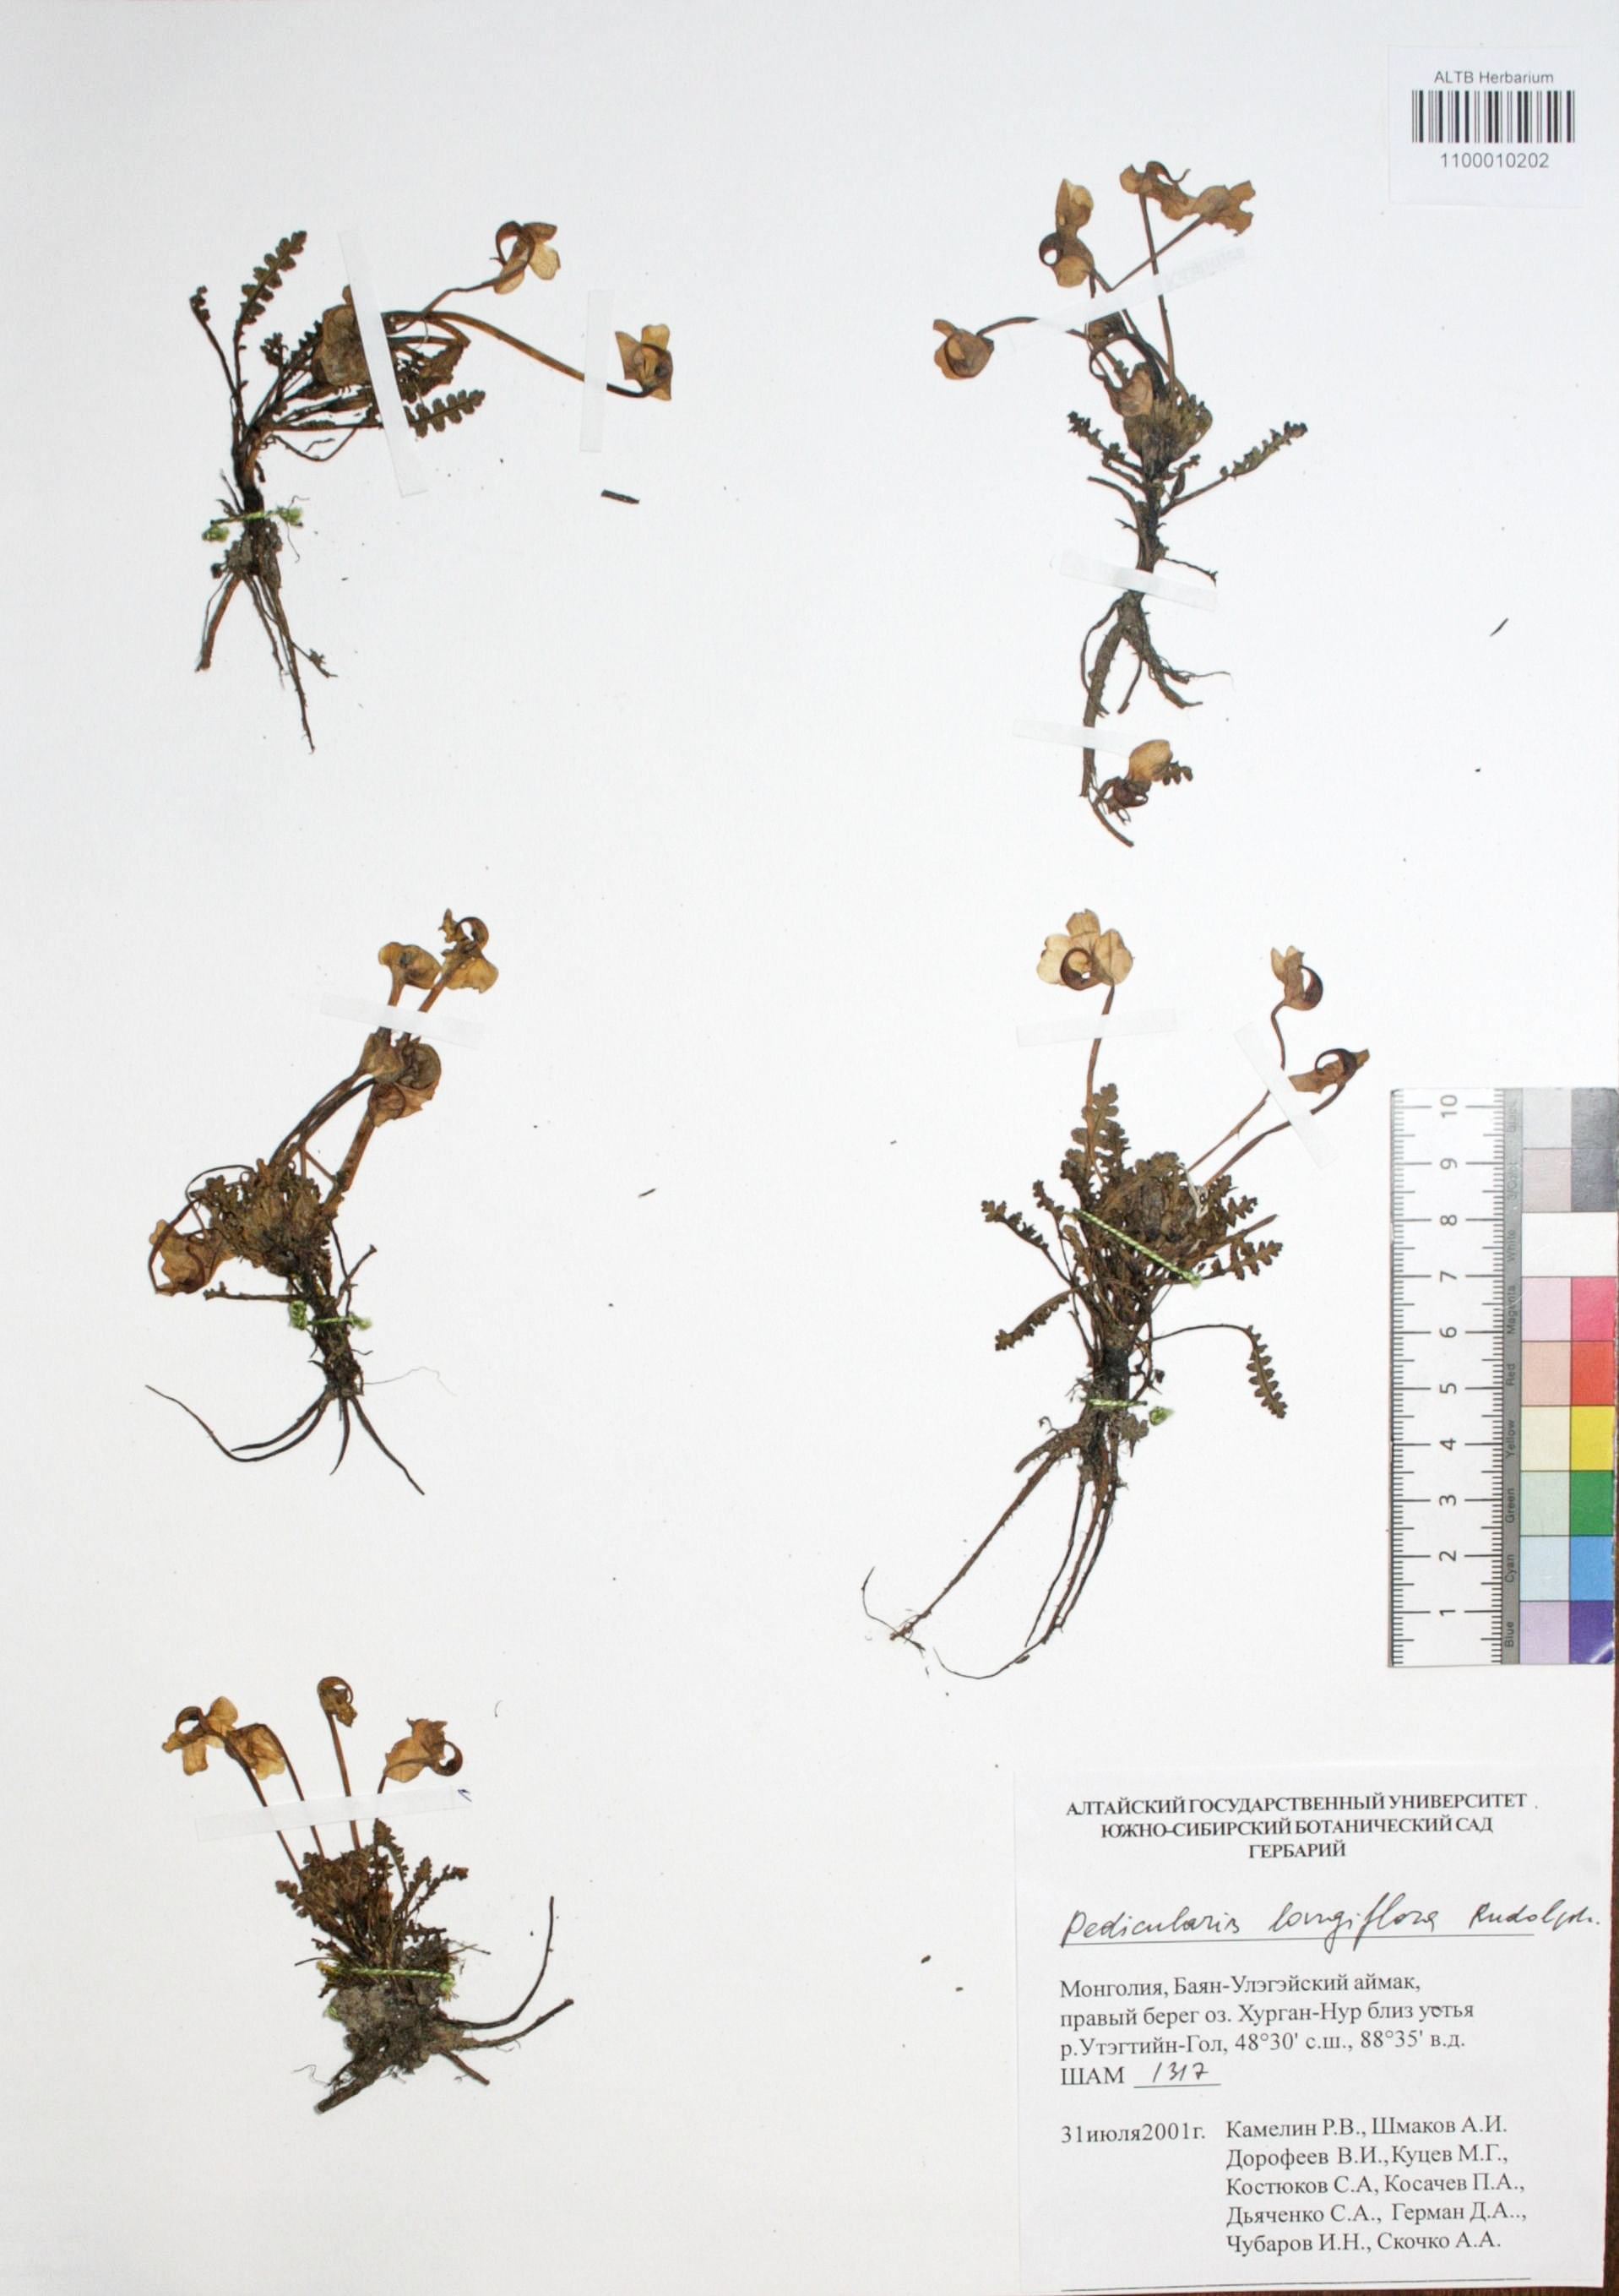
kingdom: Plantae
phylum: Tracheophyta
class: Magnoliopsida
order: Lamiales
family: Orobanchaceae
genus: Pedicularis
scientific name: Pedicularis longiflora
